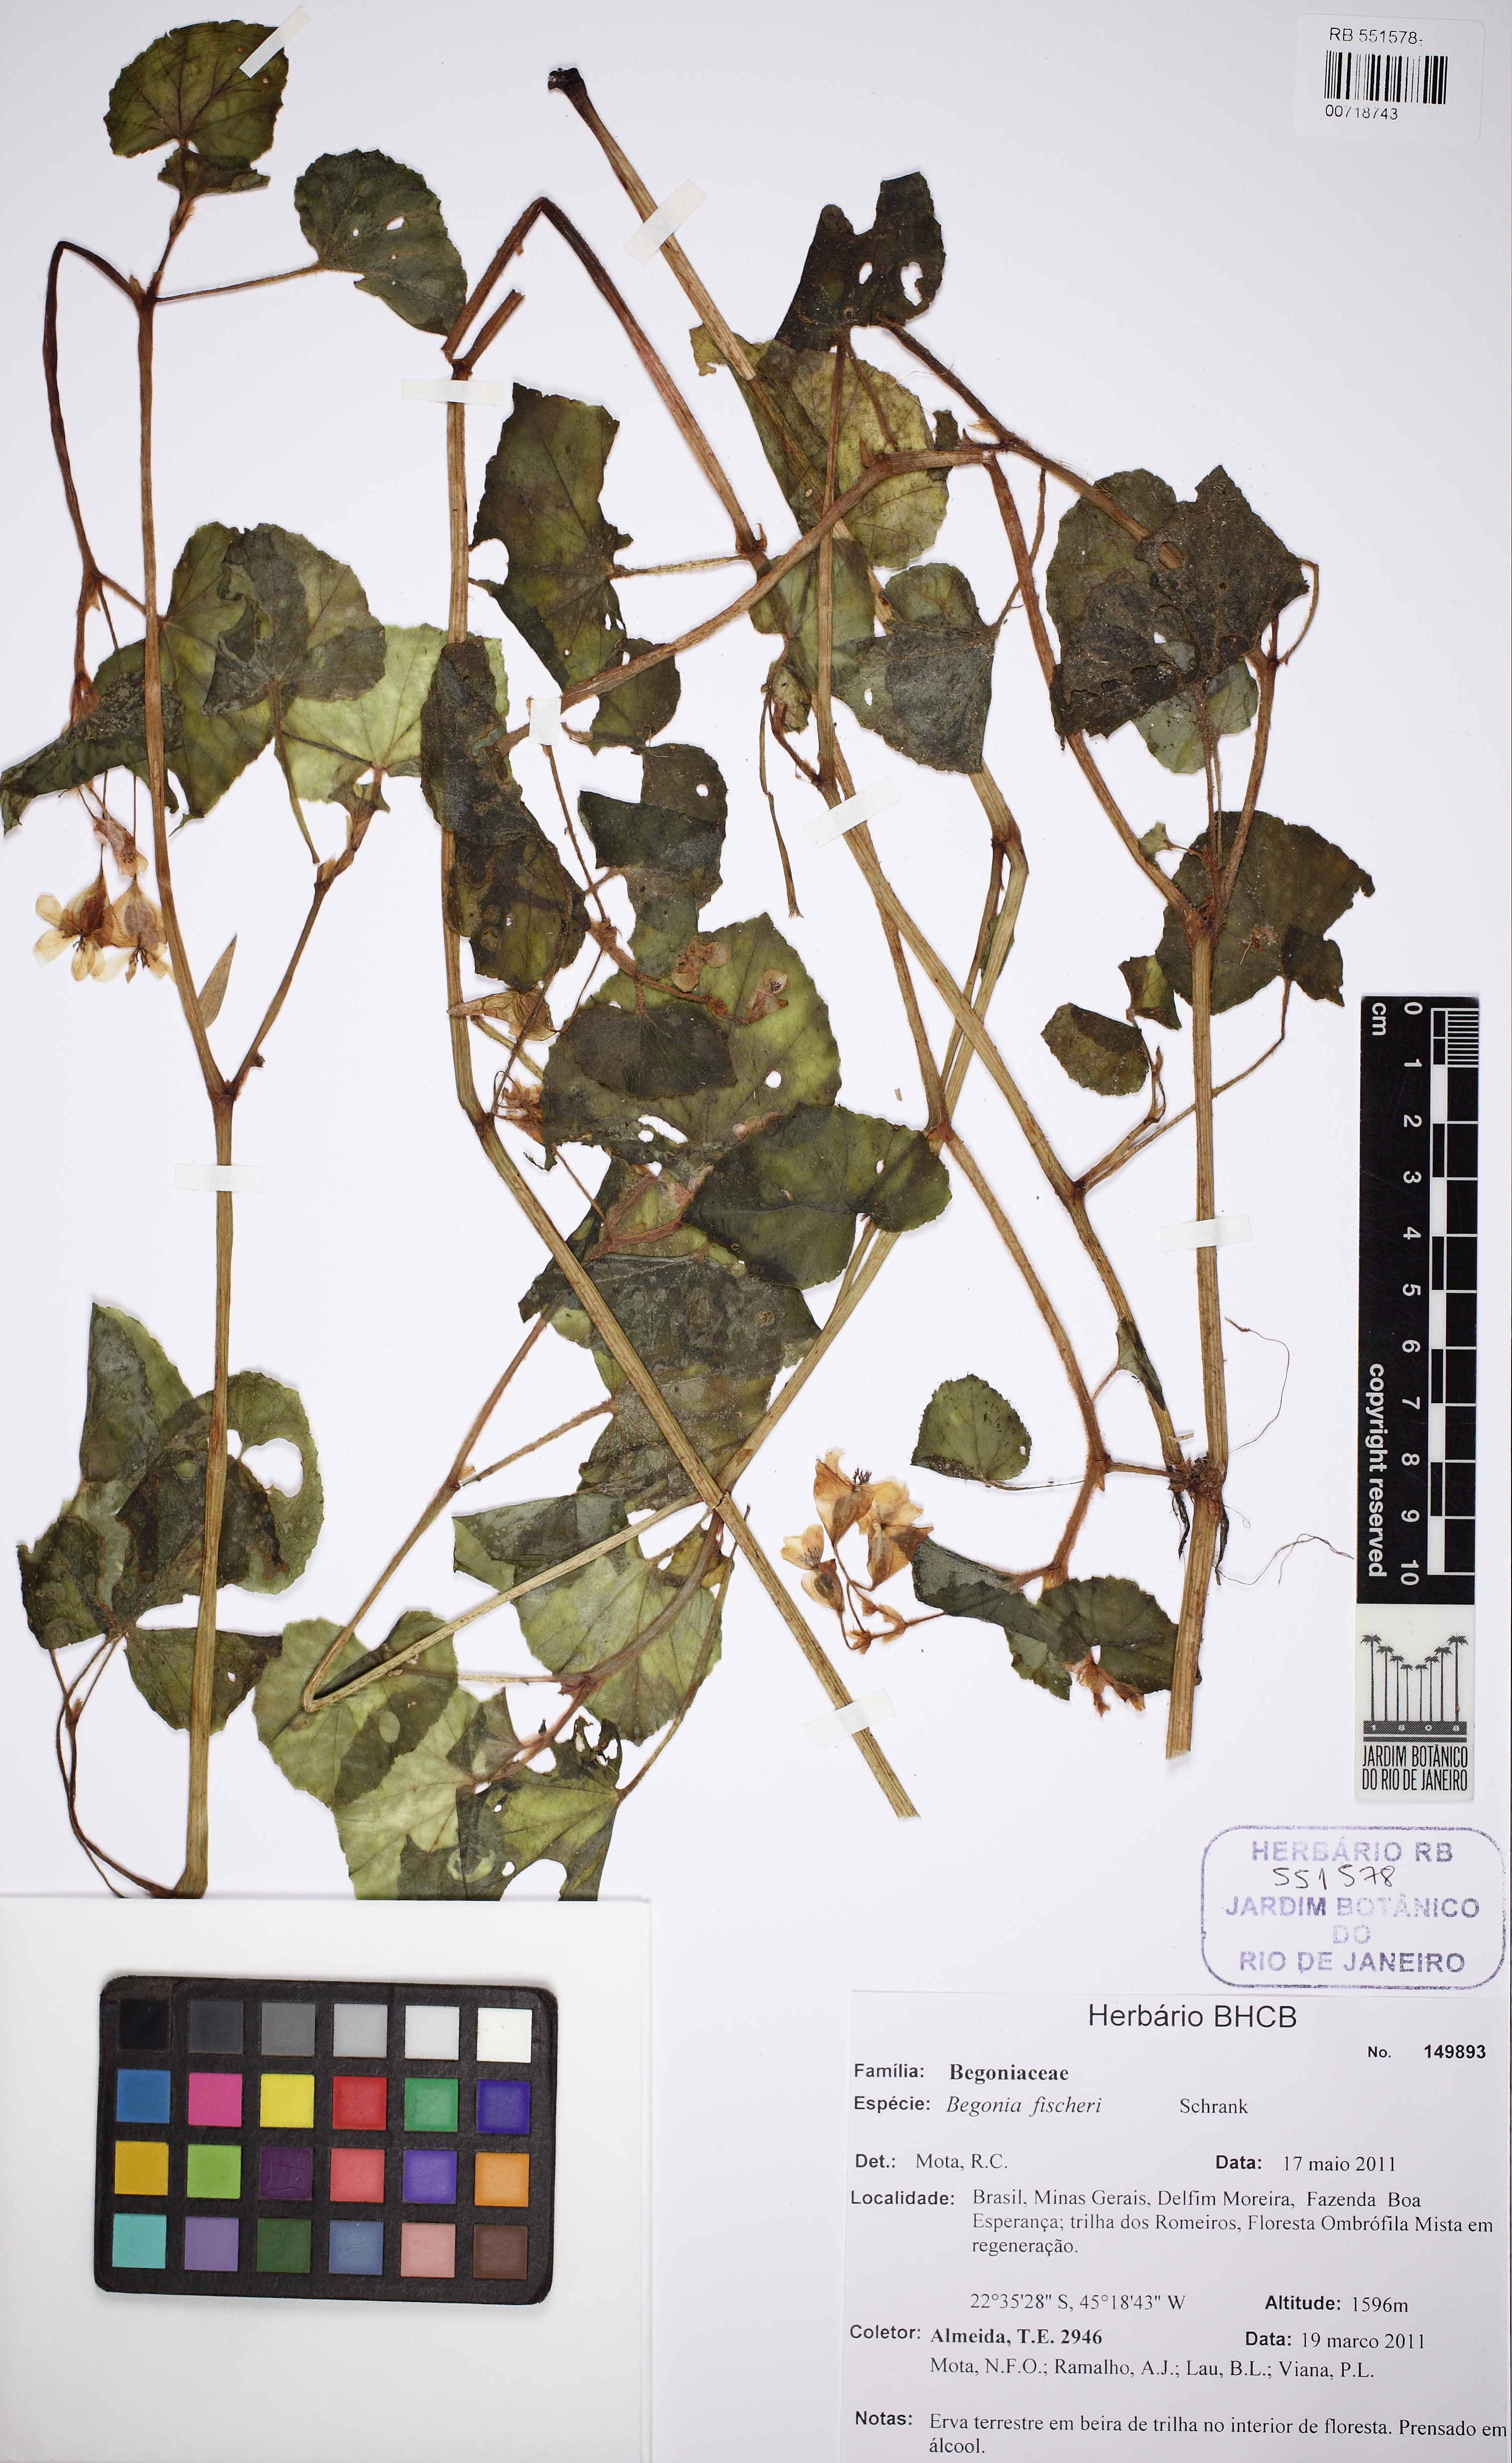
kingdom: Plantae
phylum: Tracheophyta
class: Magnoliopsida
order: Cucurbitales
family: Begoniaceae
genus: Begonia
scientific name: Begonia fischeri
